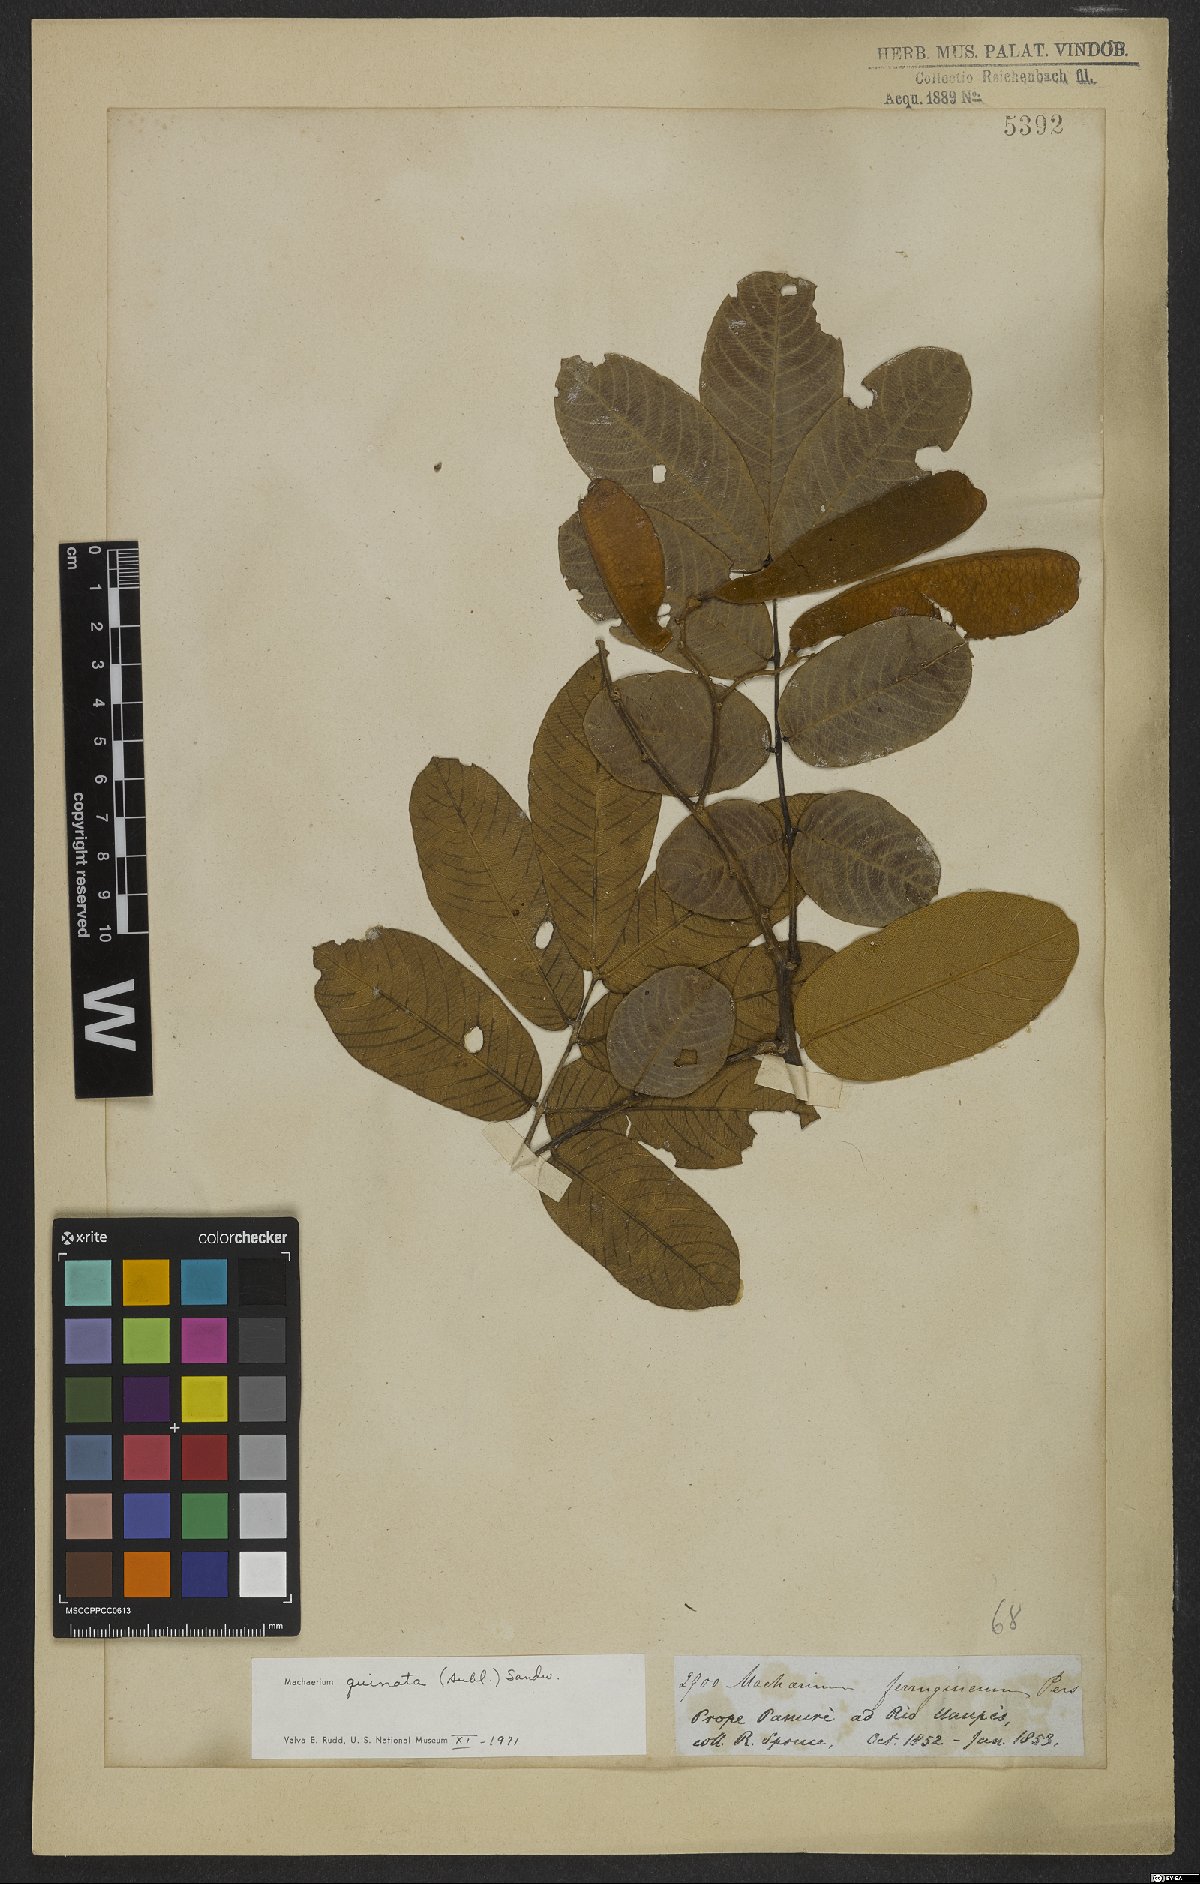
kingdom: Plantae
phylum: Tracheophyta
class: Magnoliopsida
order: Fabales
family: Fabaceae
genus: Machaerium
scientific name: Machaerium quinata
